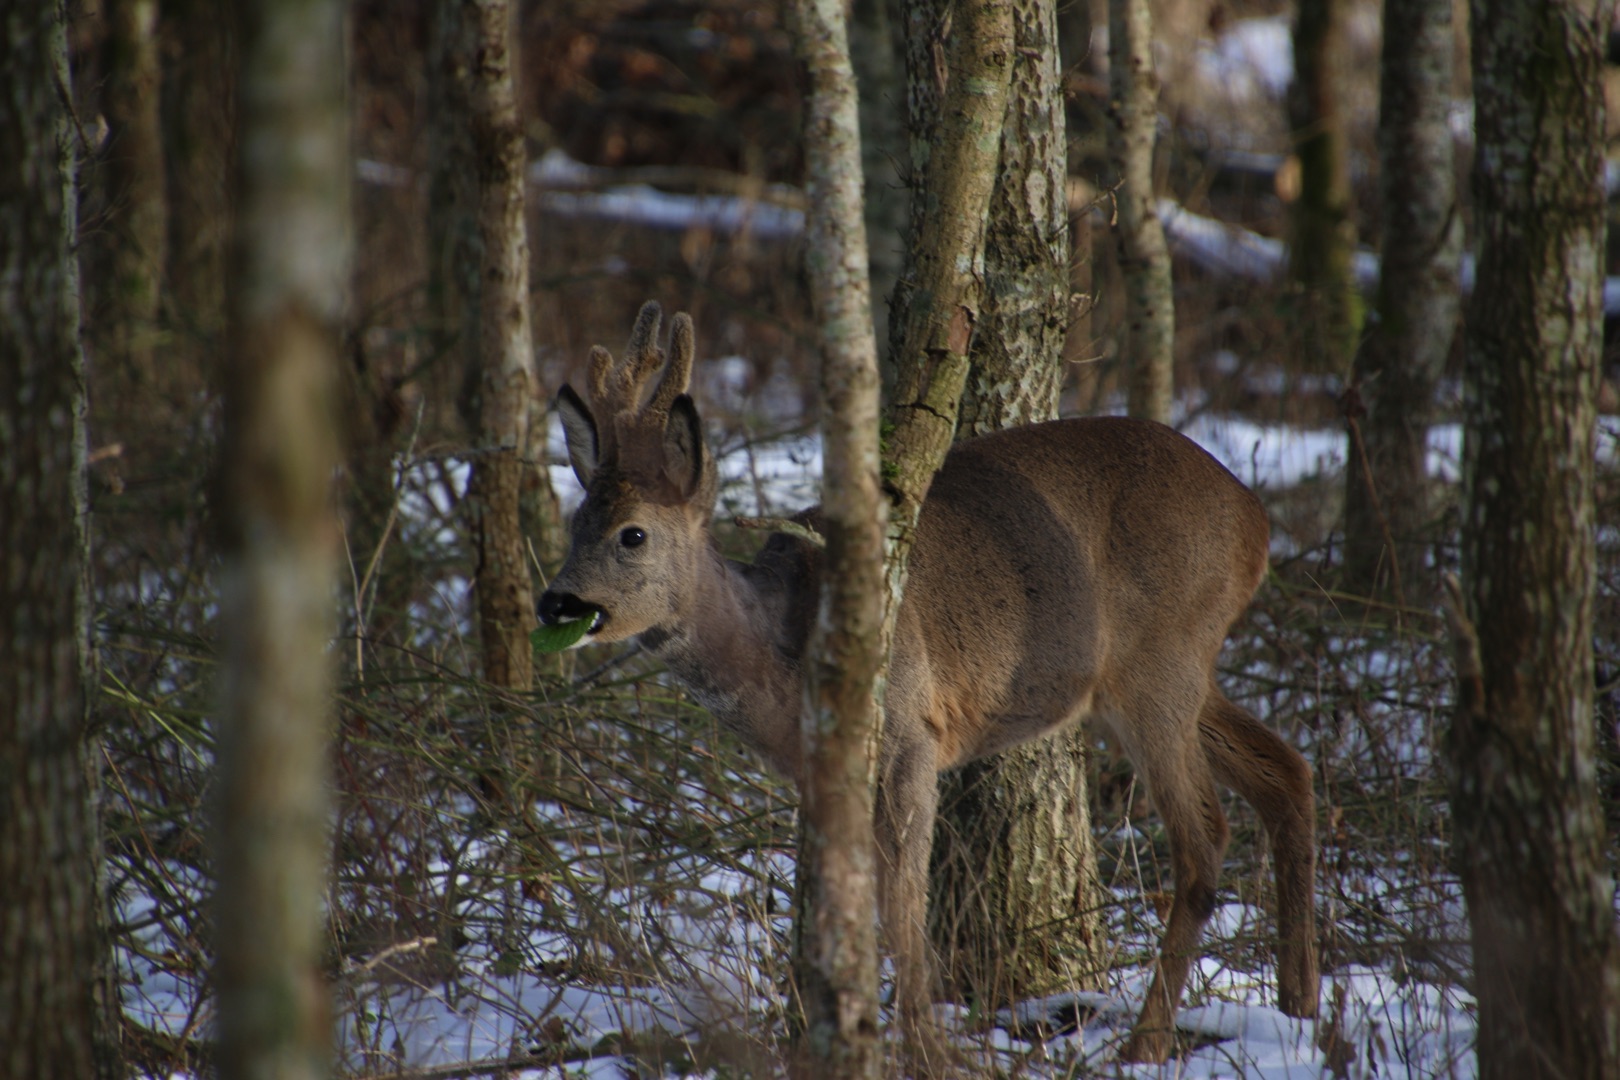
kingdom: Animalia
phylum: Chordata
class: Mammalia
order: Artiodactyla
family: Cervidae
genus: Capreolus
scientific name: Capreolus capreolus
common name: Rådyr
